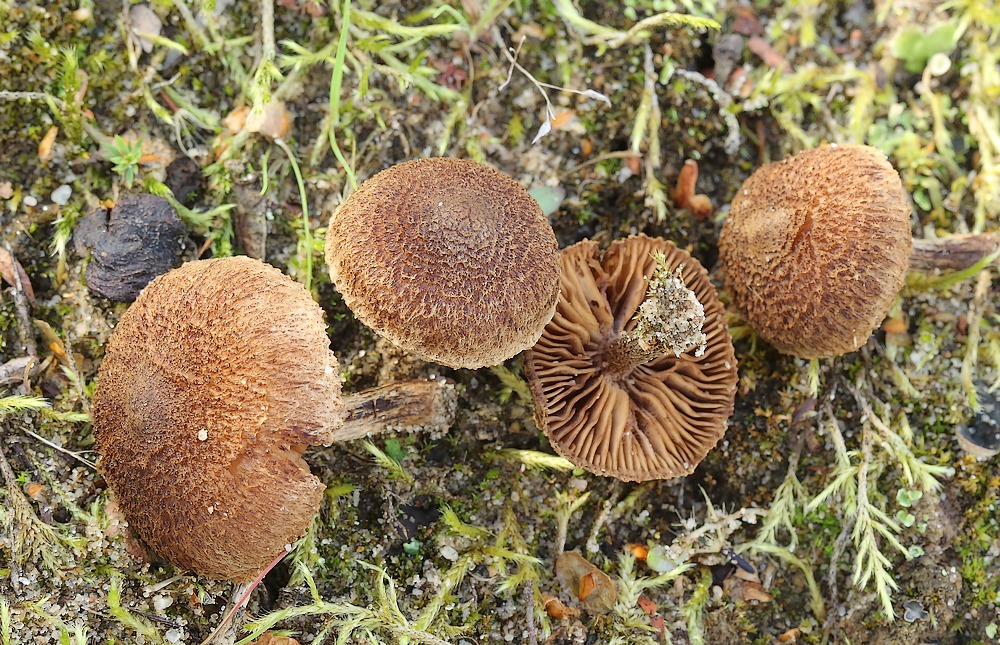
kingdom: Fungi
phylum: Basidiomycota
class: Agaricomycetes
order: Agaricales
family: Inocybaceae
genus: Inocybe
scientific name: Inocybe
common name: trævlhat
